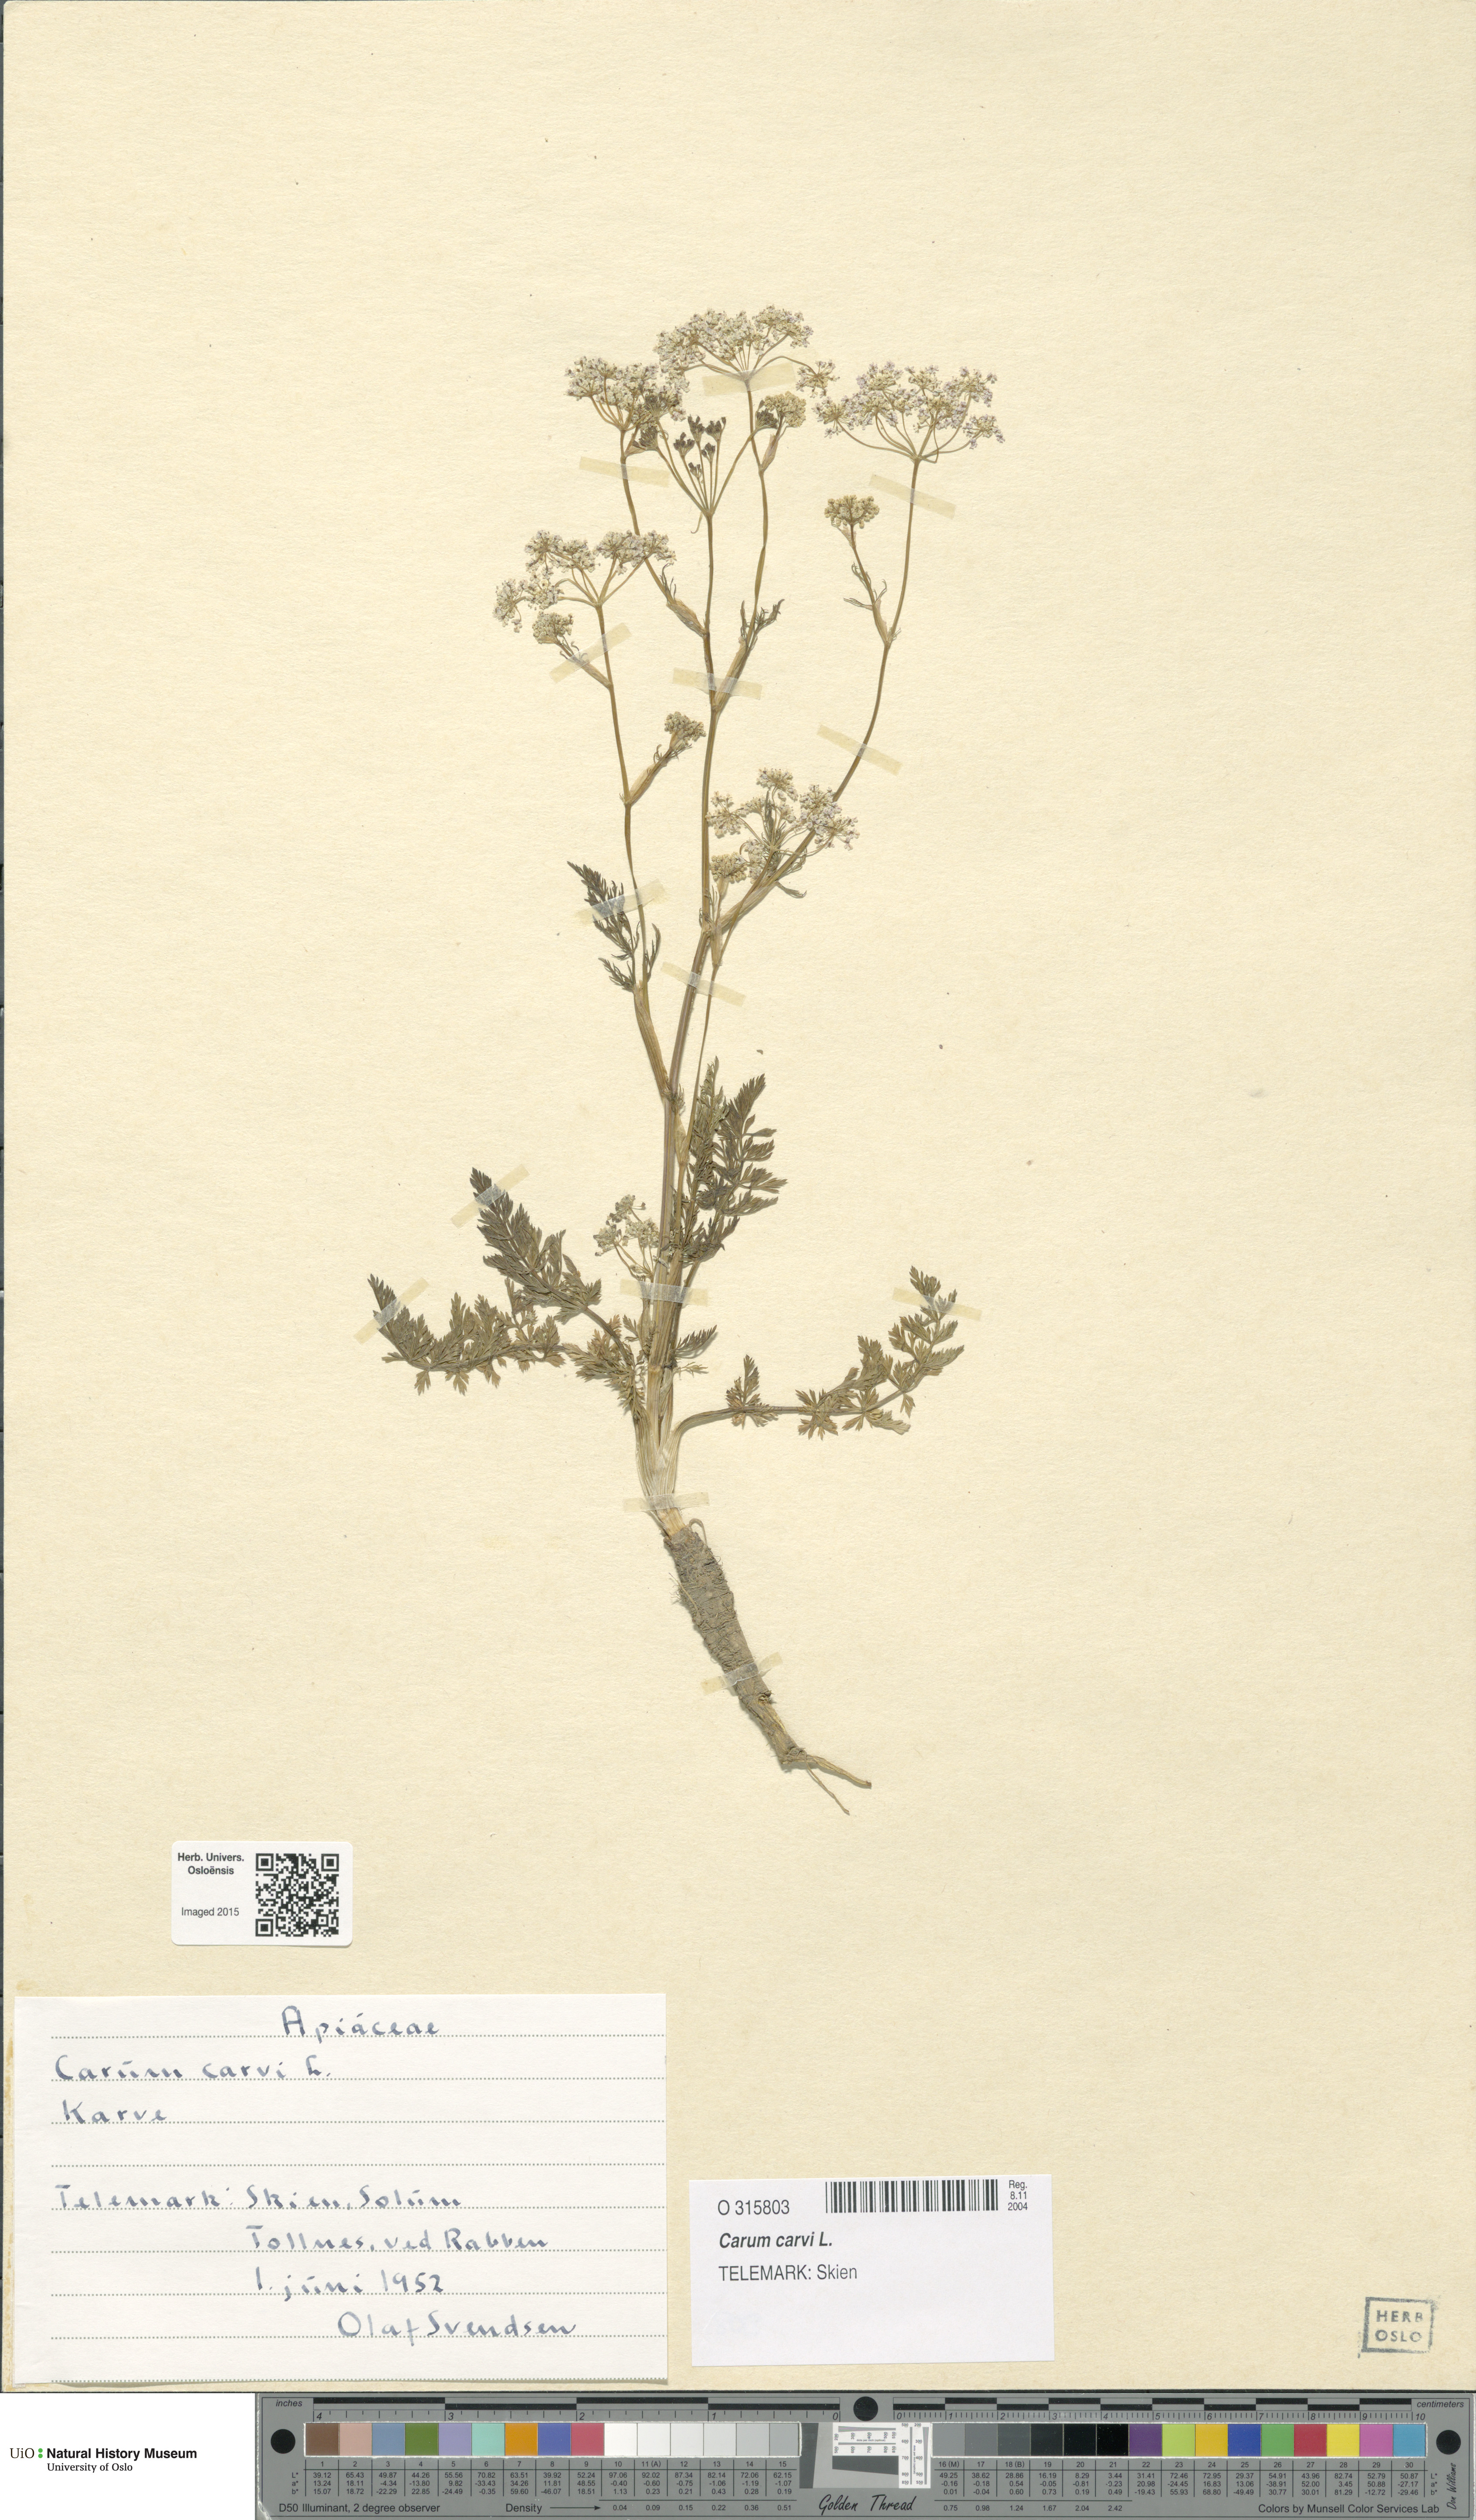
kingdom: Plantae
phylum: Tracheophyta
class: Magnoliopsida
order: Apiales
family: Apiaceae
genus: Carum
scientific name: Carum carvi
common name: Caraway
